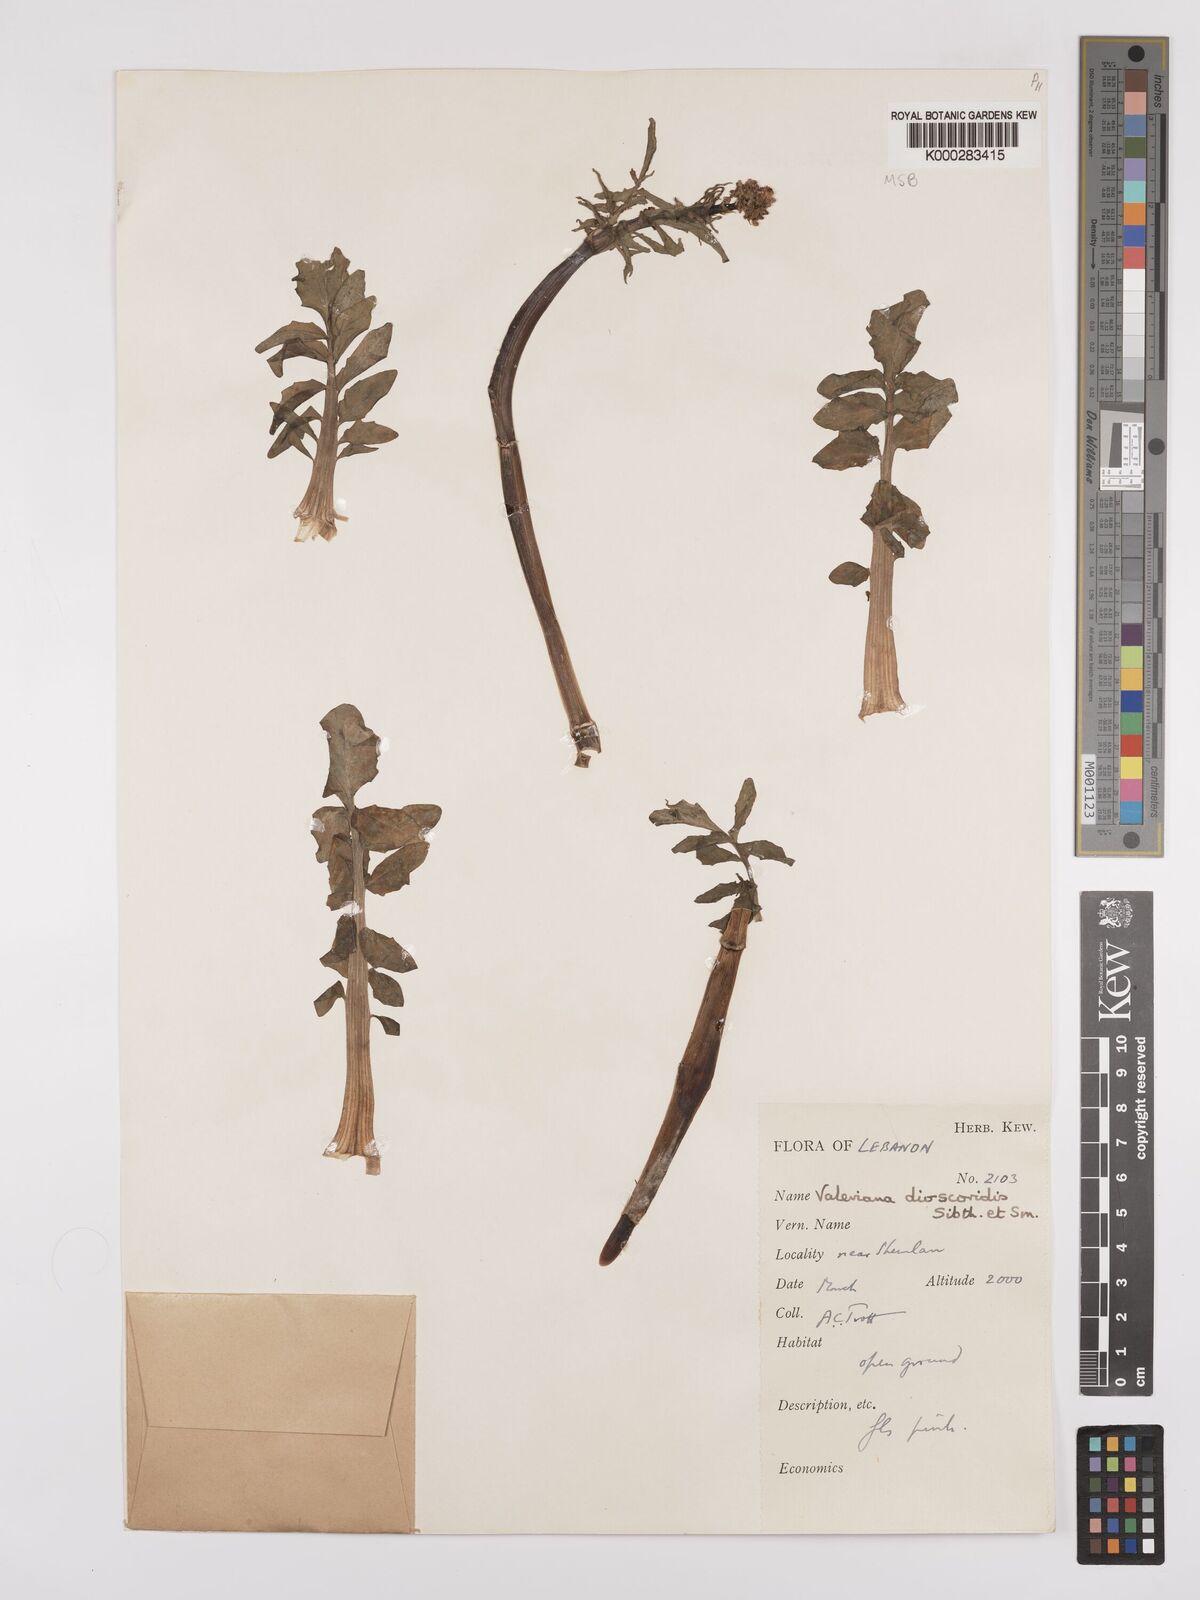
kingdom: Plantae
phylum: Tracheophyta
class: Magnoliopsida
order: Dipsacales
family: Caprifoliaceae
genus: Valeriana
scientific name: Valeriana dioscoridis
